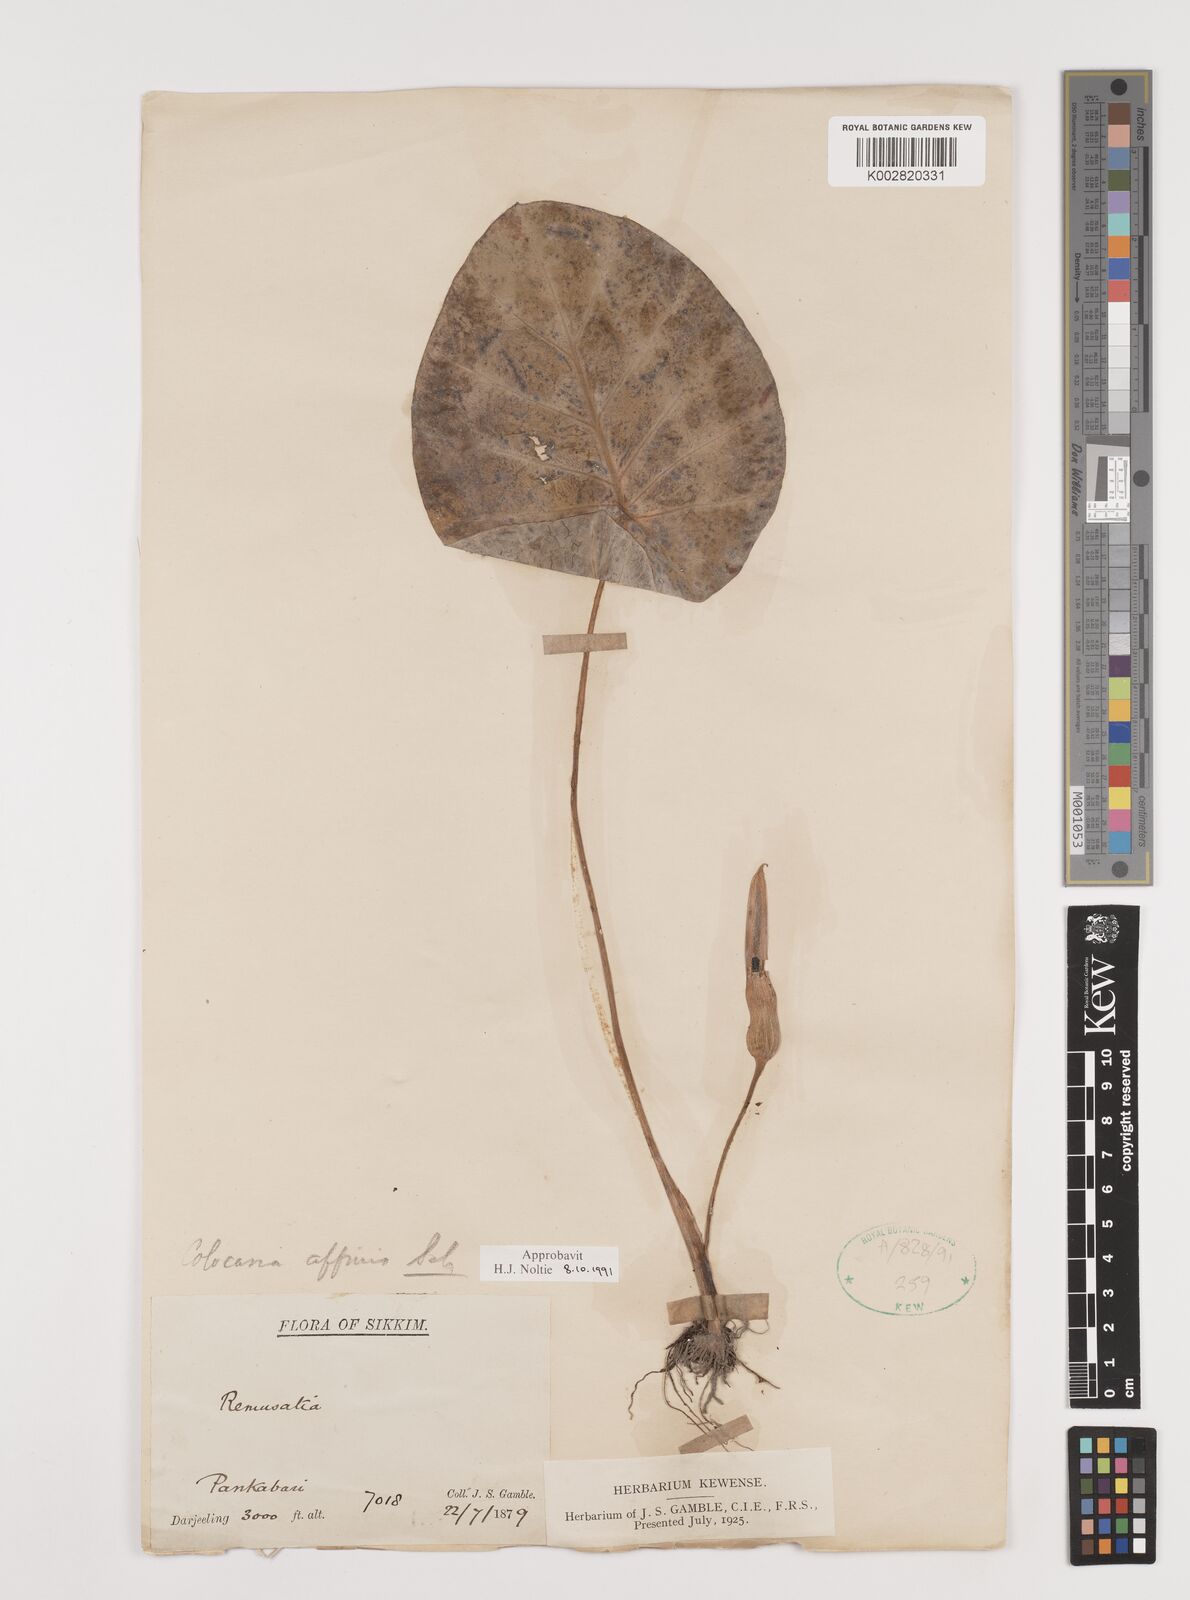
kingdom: Plantae
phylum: Tracheophyta
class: Liliopsida
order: Alismatales
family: Araceae
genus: Colocasia
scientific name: Colocasia affinis
